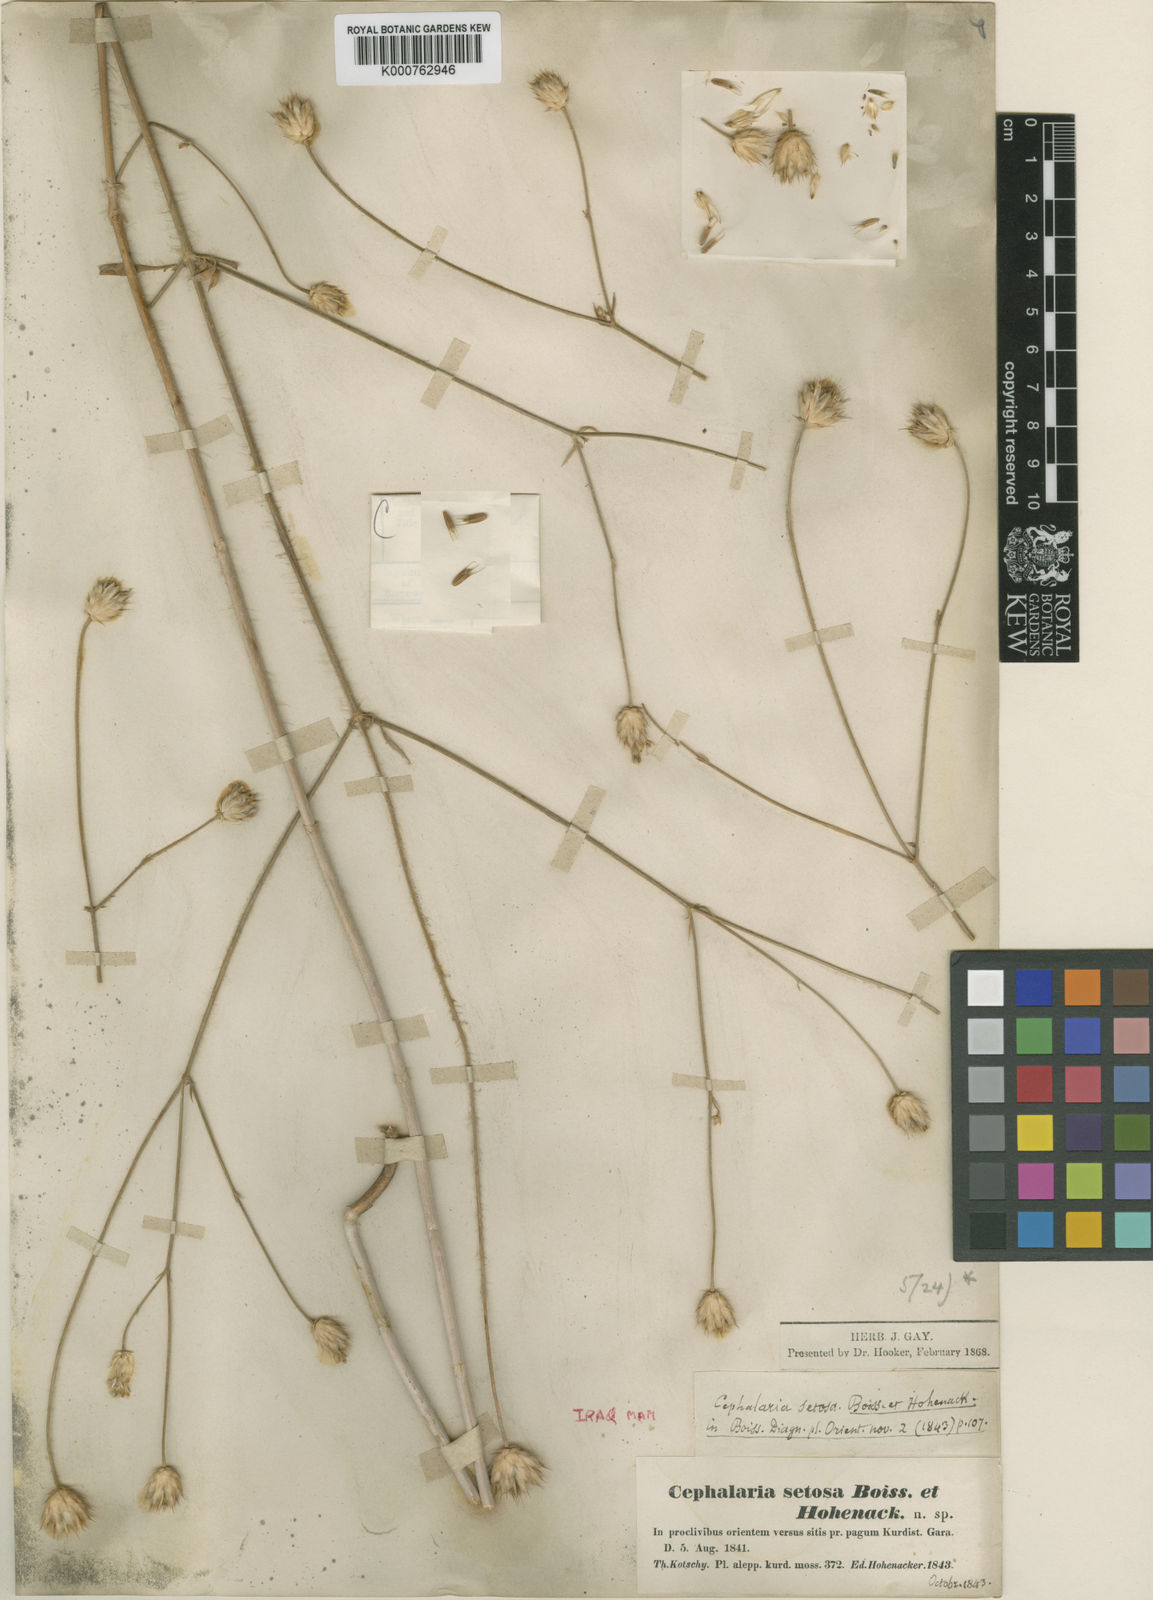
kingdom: Plantae
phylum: Tracheophyta
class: Magnoliopsida
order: Dipsacales
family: Caprifoliaceae
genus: Cephalaria
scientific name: Cephalaria setosa
